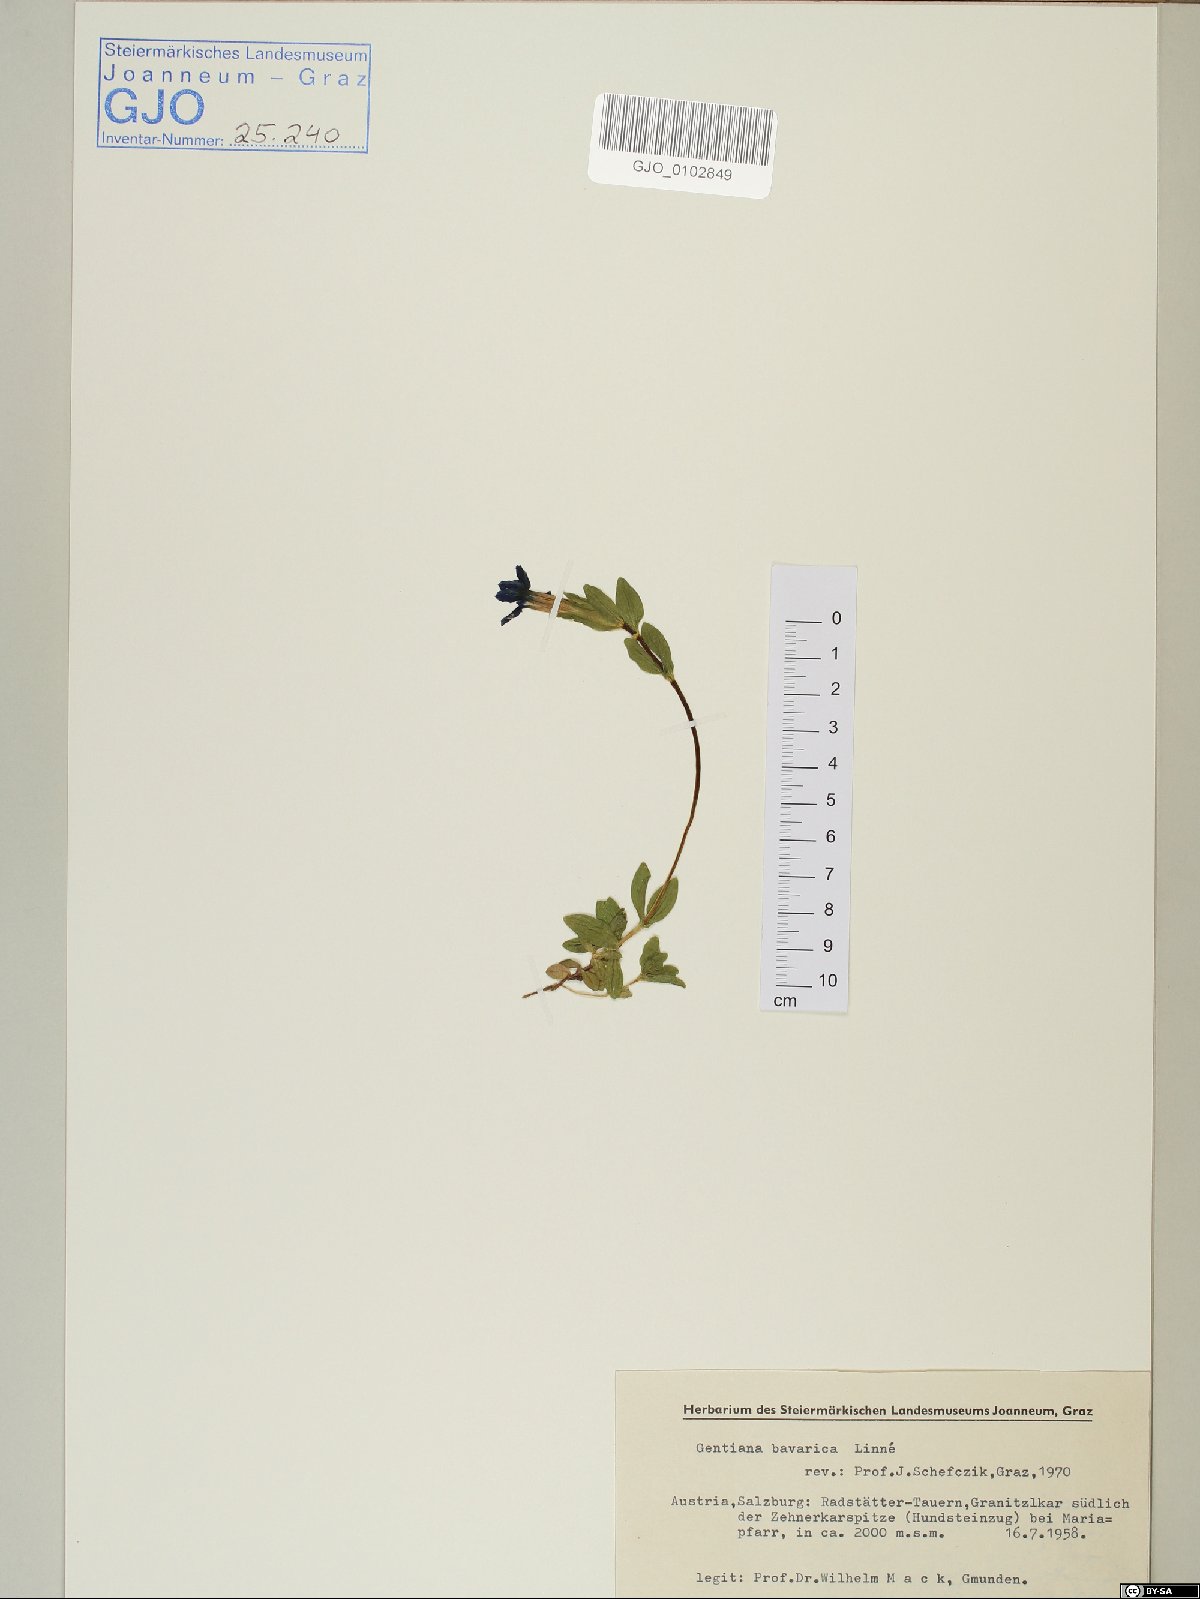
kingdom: Plantae
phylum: Tracheophyta
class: Magnoliopsida
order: Gentianales
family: Gentianaceae
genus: Gentiana
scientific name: Gentiana bavarica
